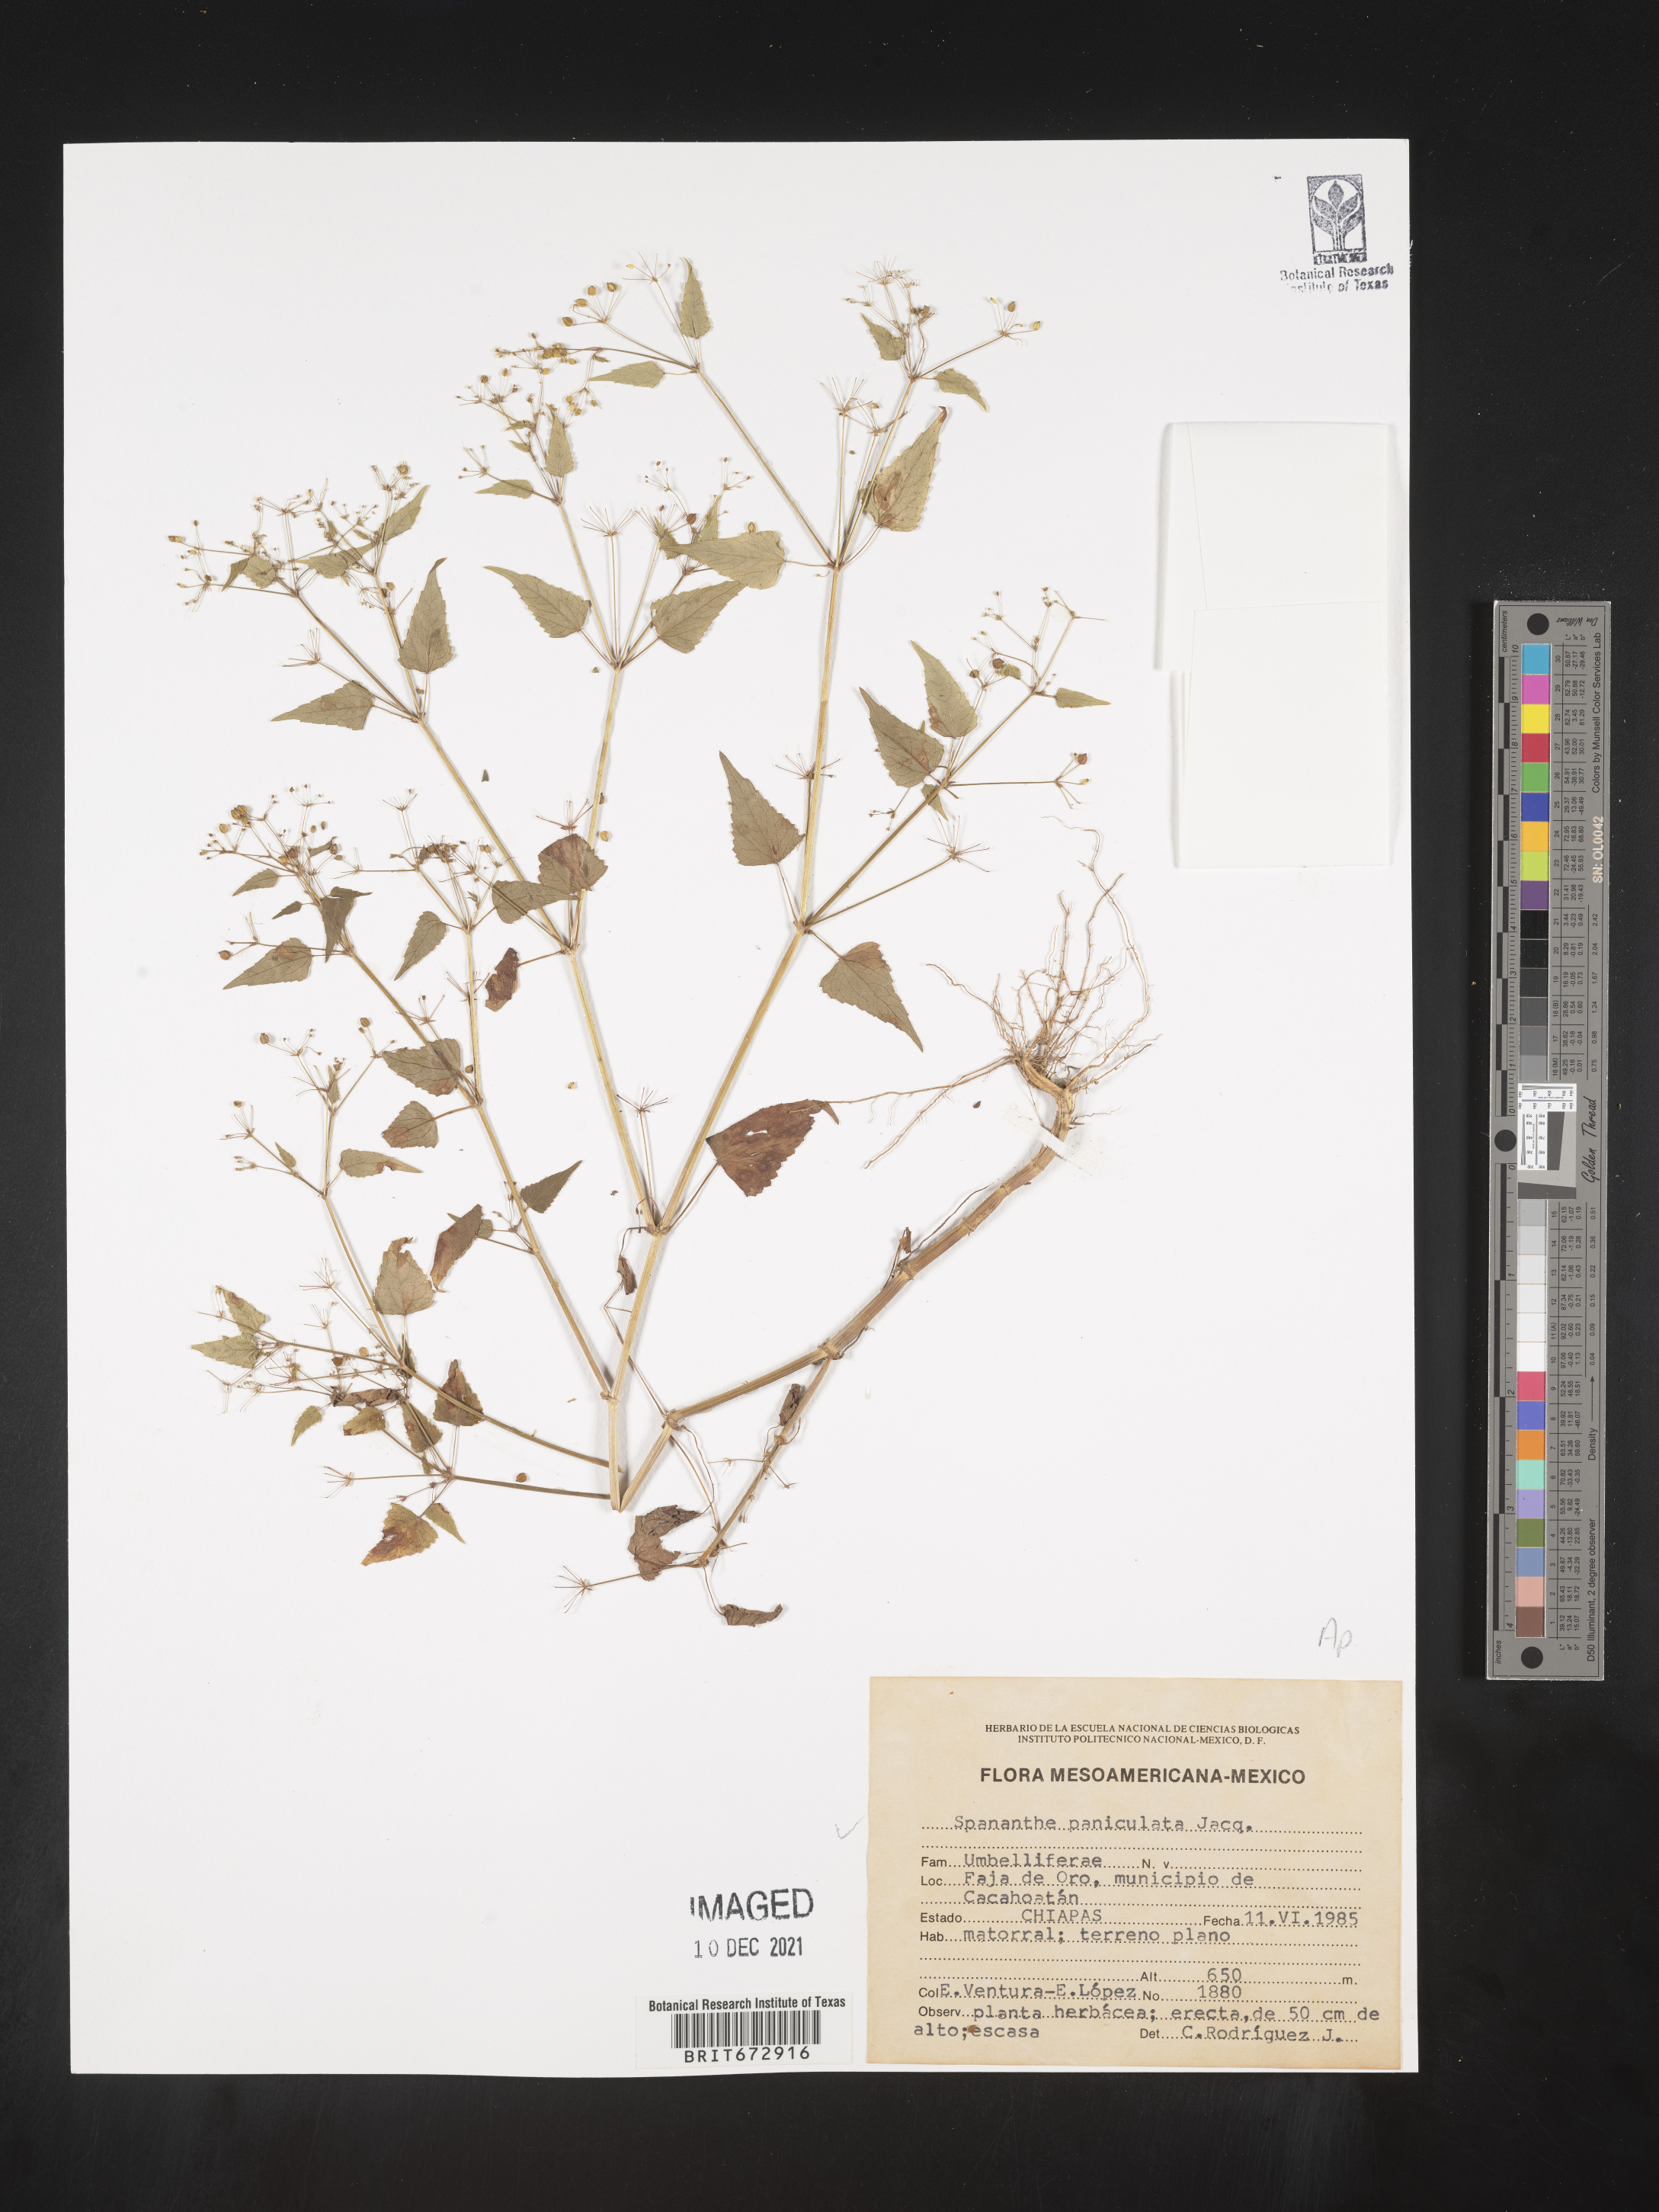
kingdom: Plantae
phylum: Tracheophyta
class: Magnoliopsida
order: Apiales
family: Apiaceae
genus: Spananthe
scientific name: Spananthe
